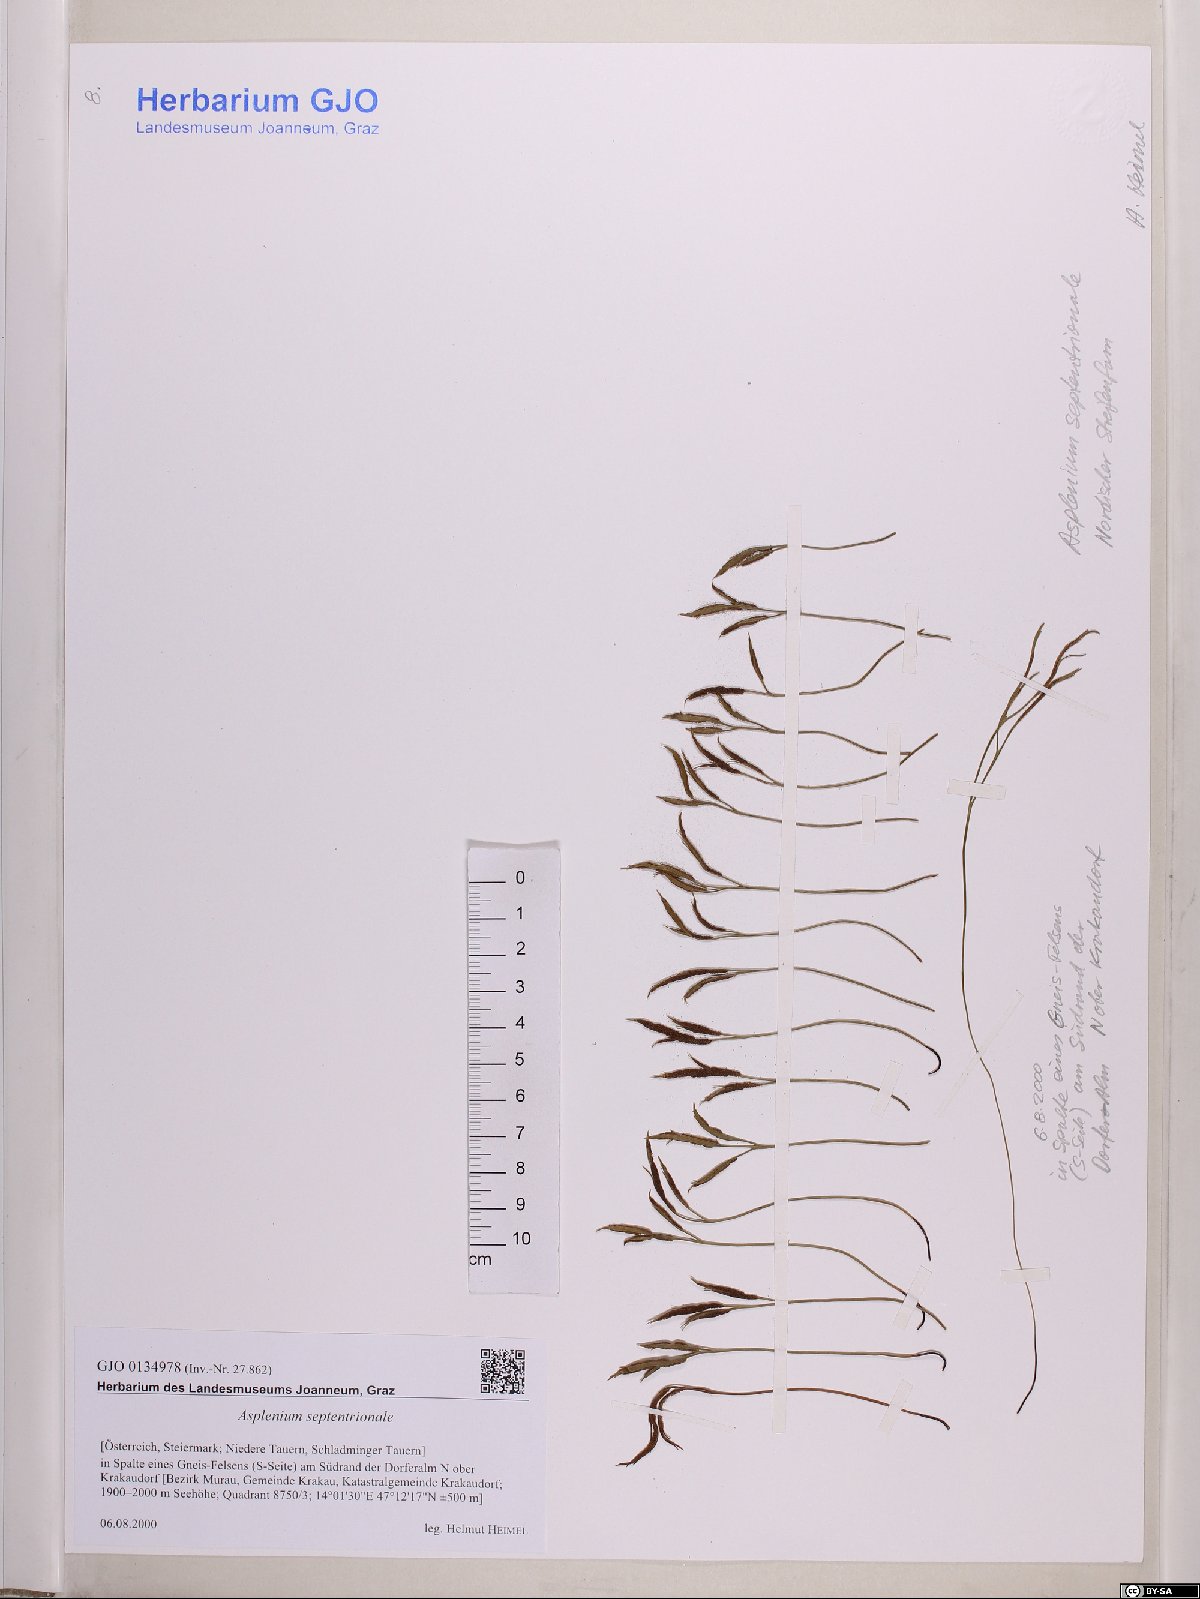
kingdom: Plantae
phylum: Tracheophyta
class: Polypodiopsida
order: Polypodiales
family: Aspleniaceae
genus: Asplenium
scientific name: Asplenium septentrionale
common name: Forked spleenwort
